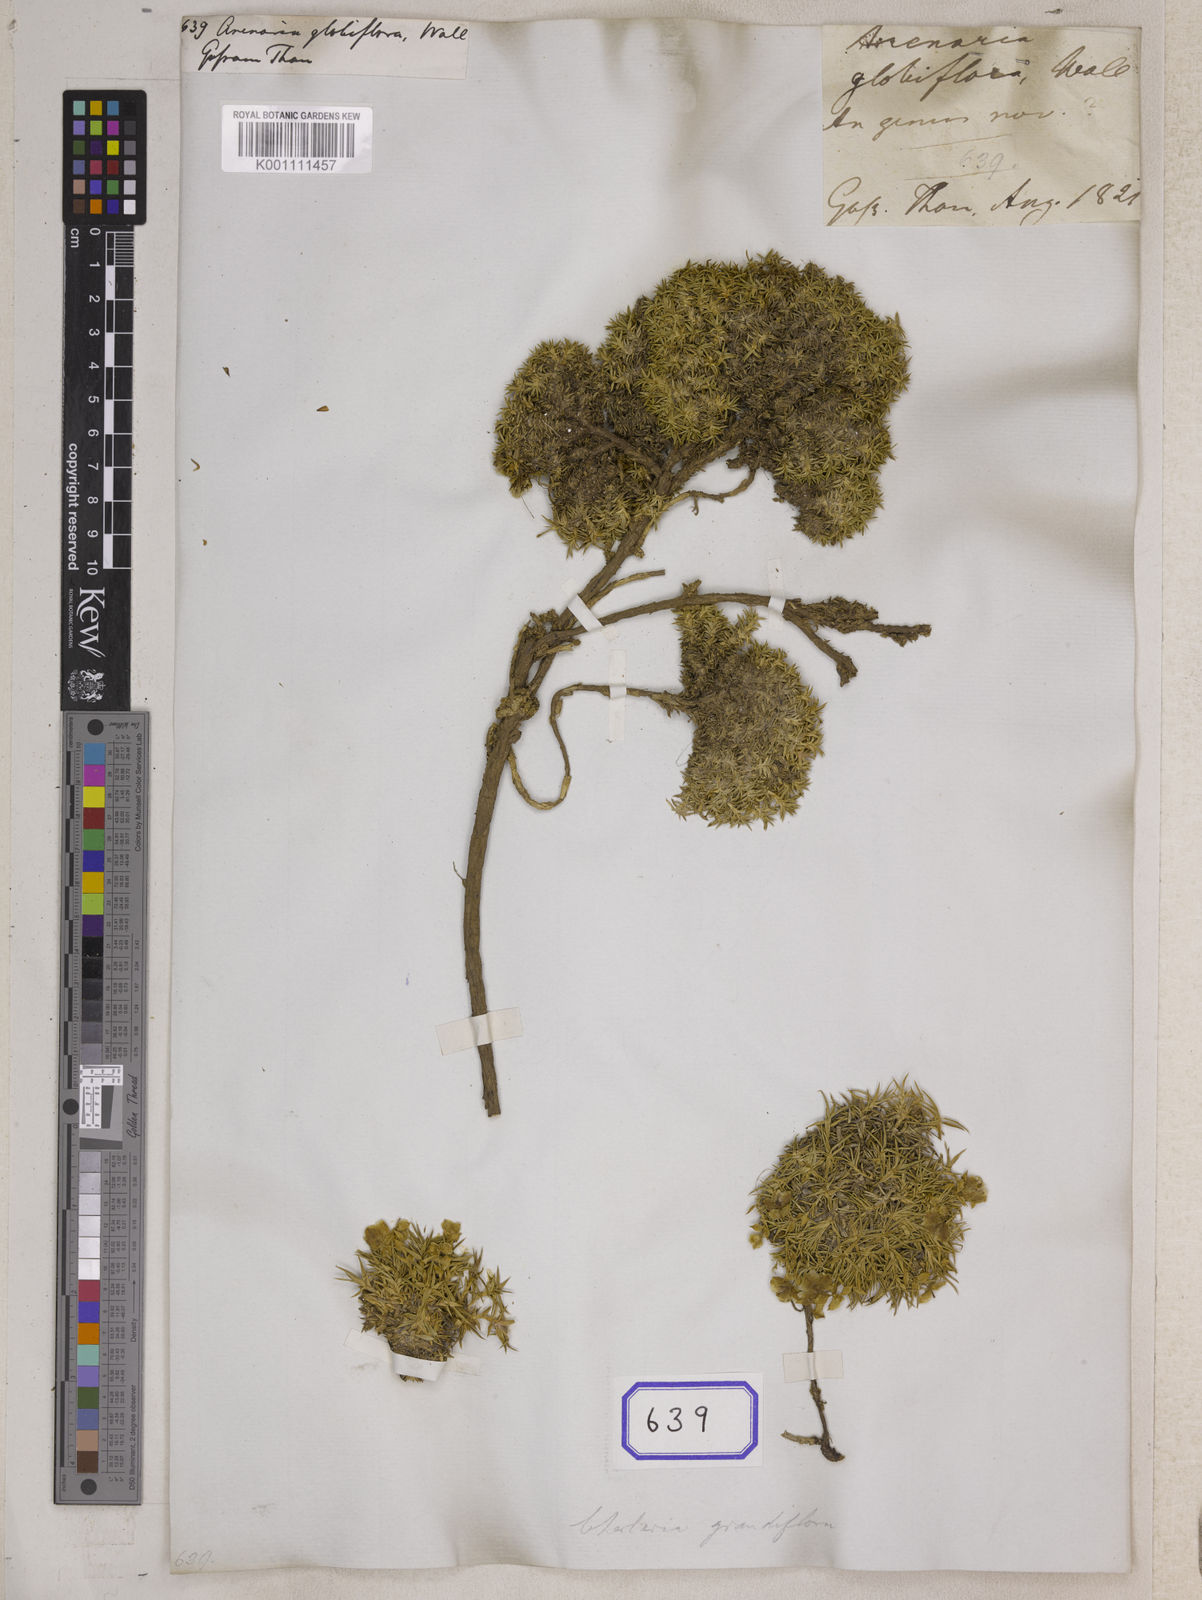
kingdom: Plantae
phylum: Tracheophyta
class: Magnoliopsida
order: Caryophyllales
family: Caryophyllaceae
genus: Arenaria
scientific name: Arenaria
